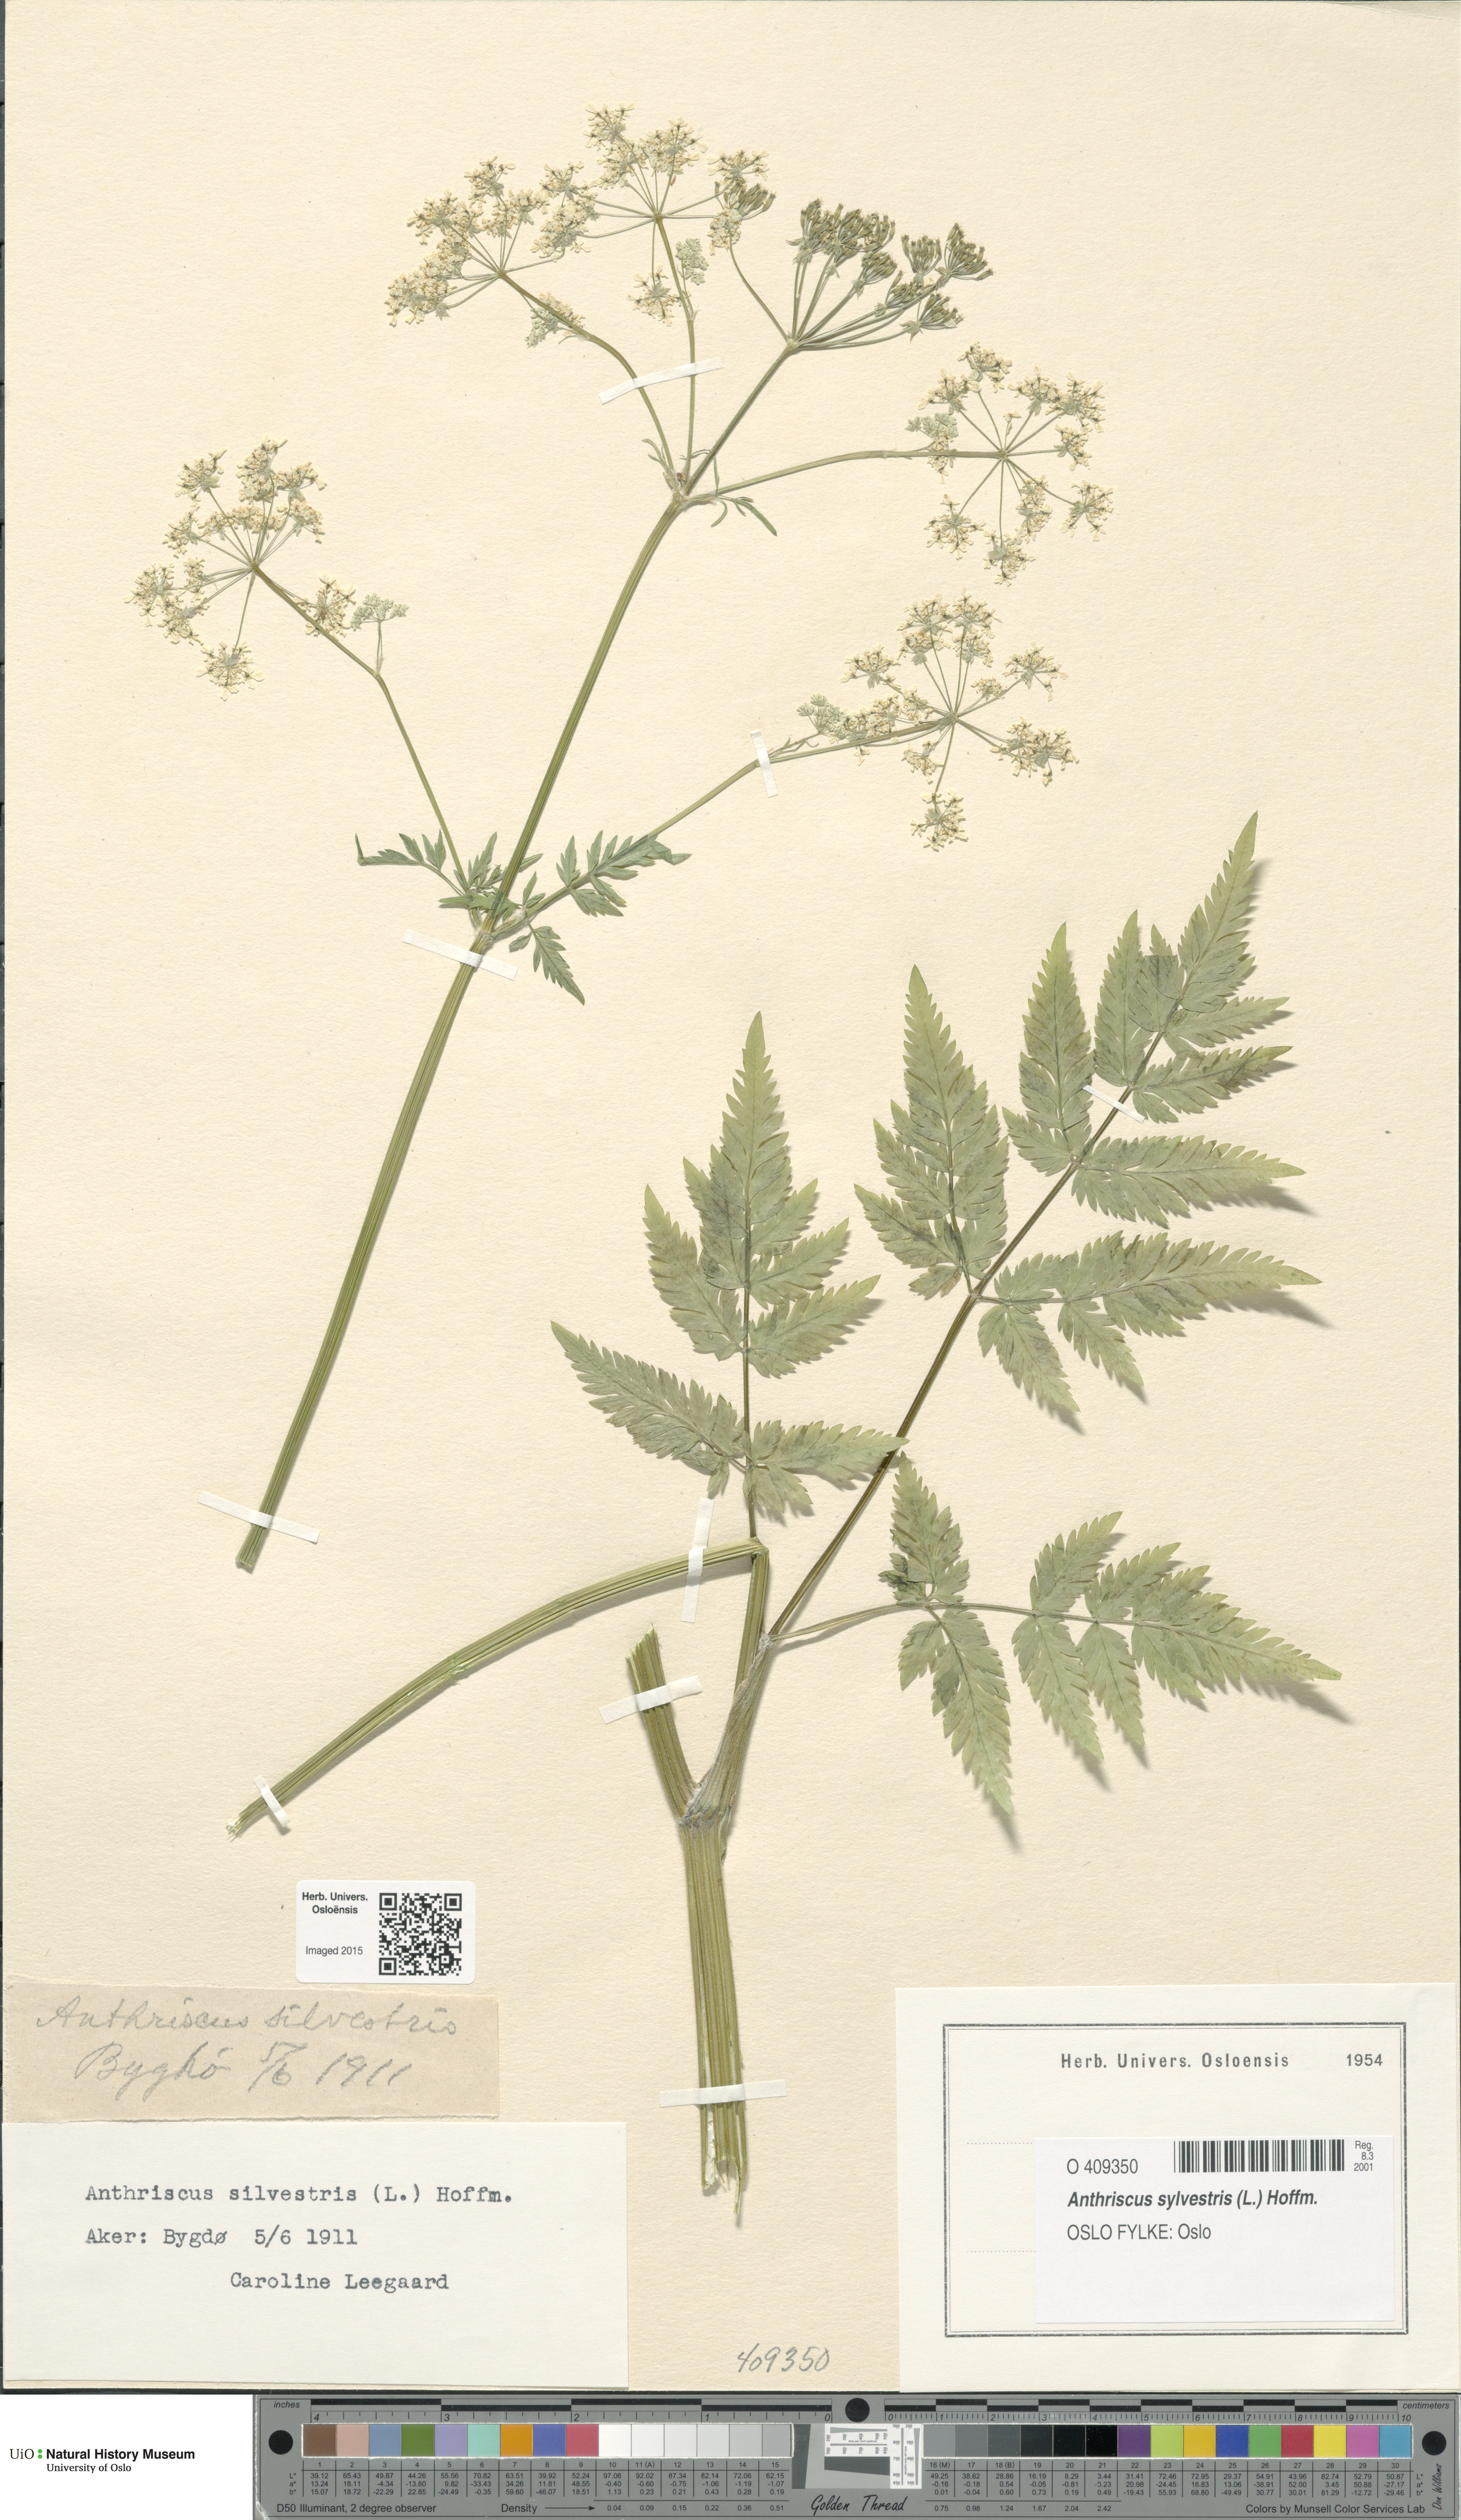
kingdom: Plantae
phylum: Tracheophyta
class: Magnoliopsida
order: Apiales
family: Apiaceae
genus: Anthriscus
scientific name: Anthriscus sylvestris
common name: Cow parsley
